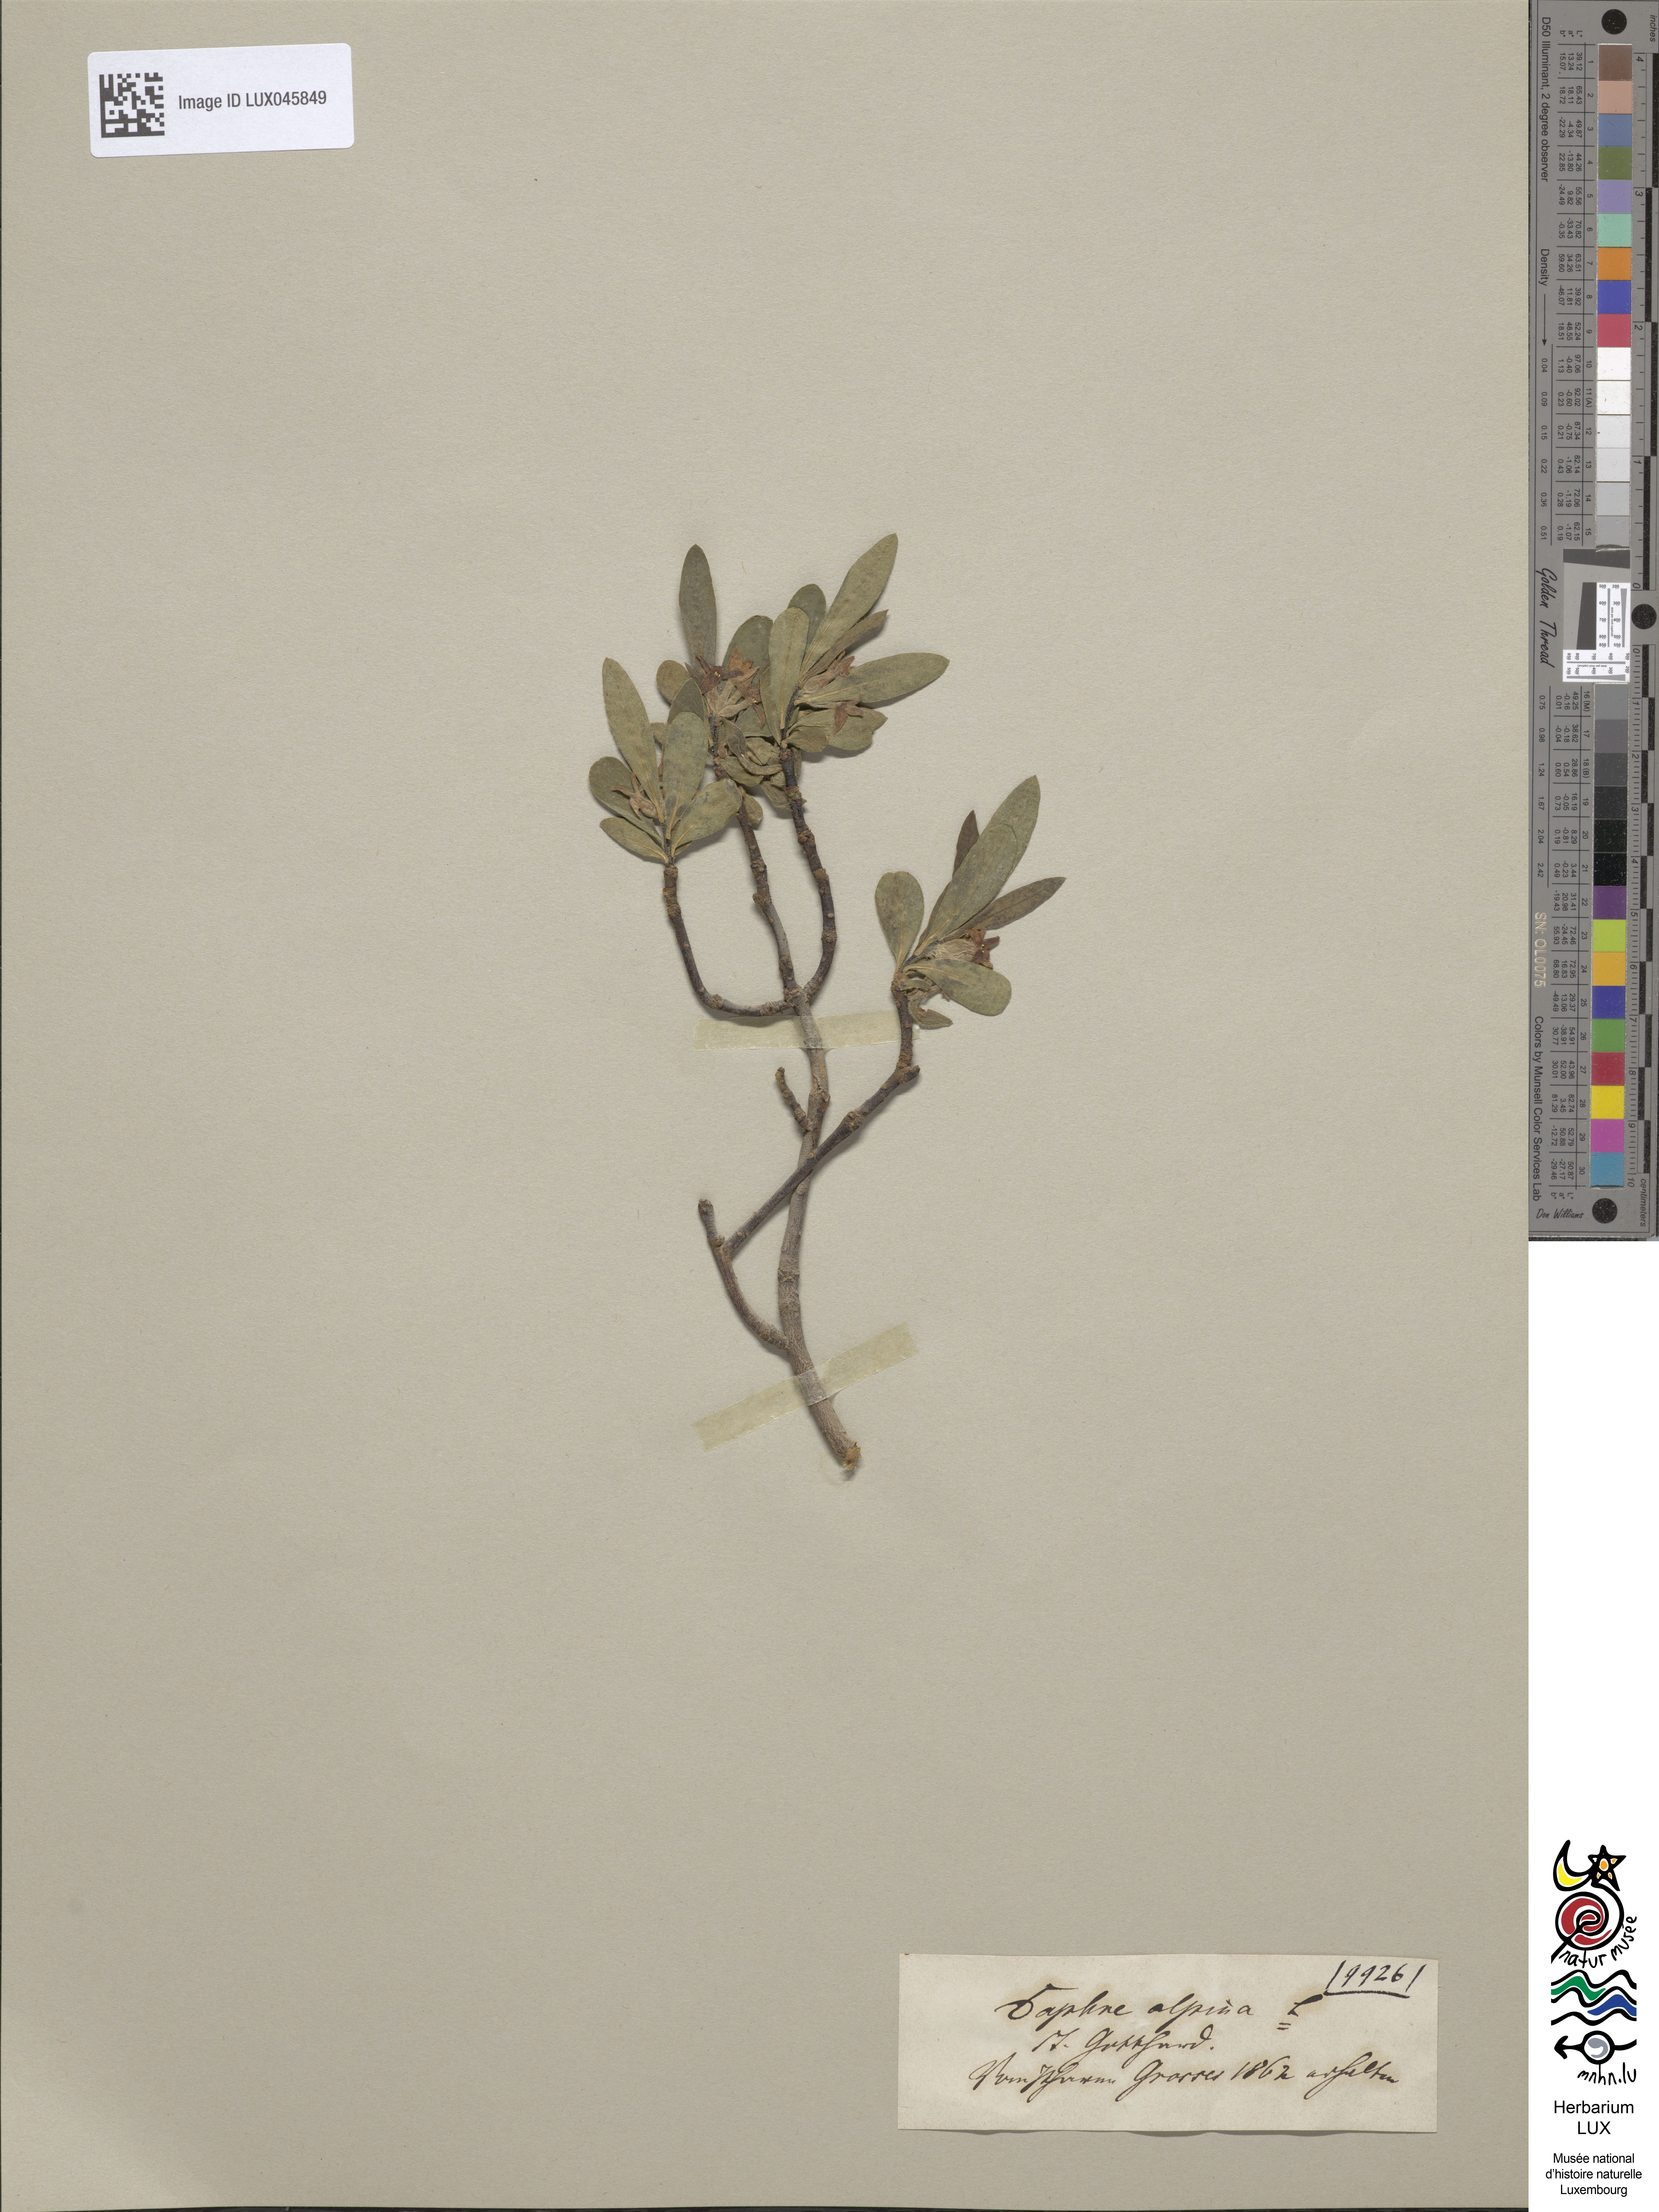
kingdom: Plantae
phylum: Tracheophyta
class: Magnoliopsida
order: Malvales
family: Thymelaeaceae
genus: Daphne
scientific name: Daphne alpina
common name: Alpine daphne
